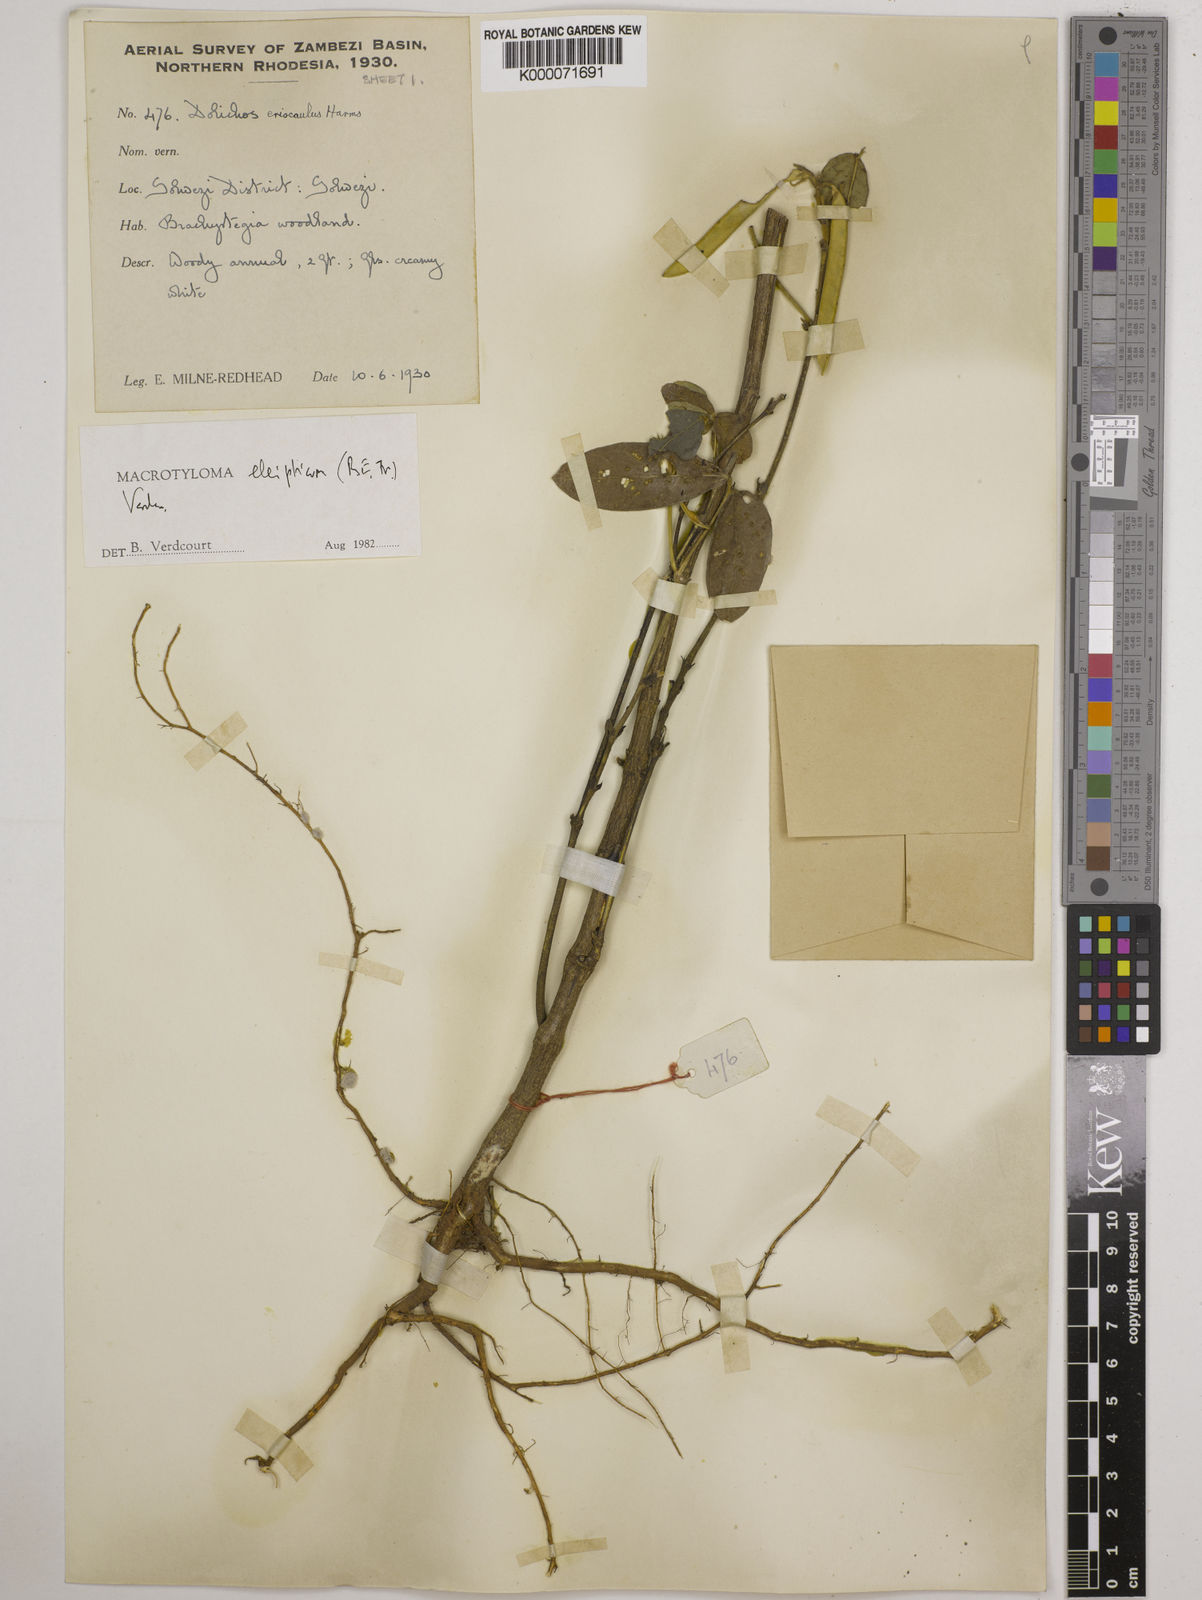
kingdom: Plantae
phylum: Tracheophyta
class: Magnoliopsida
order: Fabales
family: Fabaceae
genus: Macrotyloma
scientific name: Macrotyloma ellipticum
